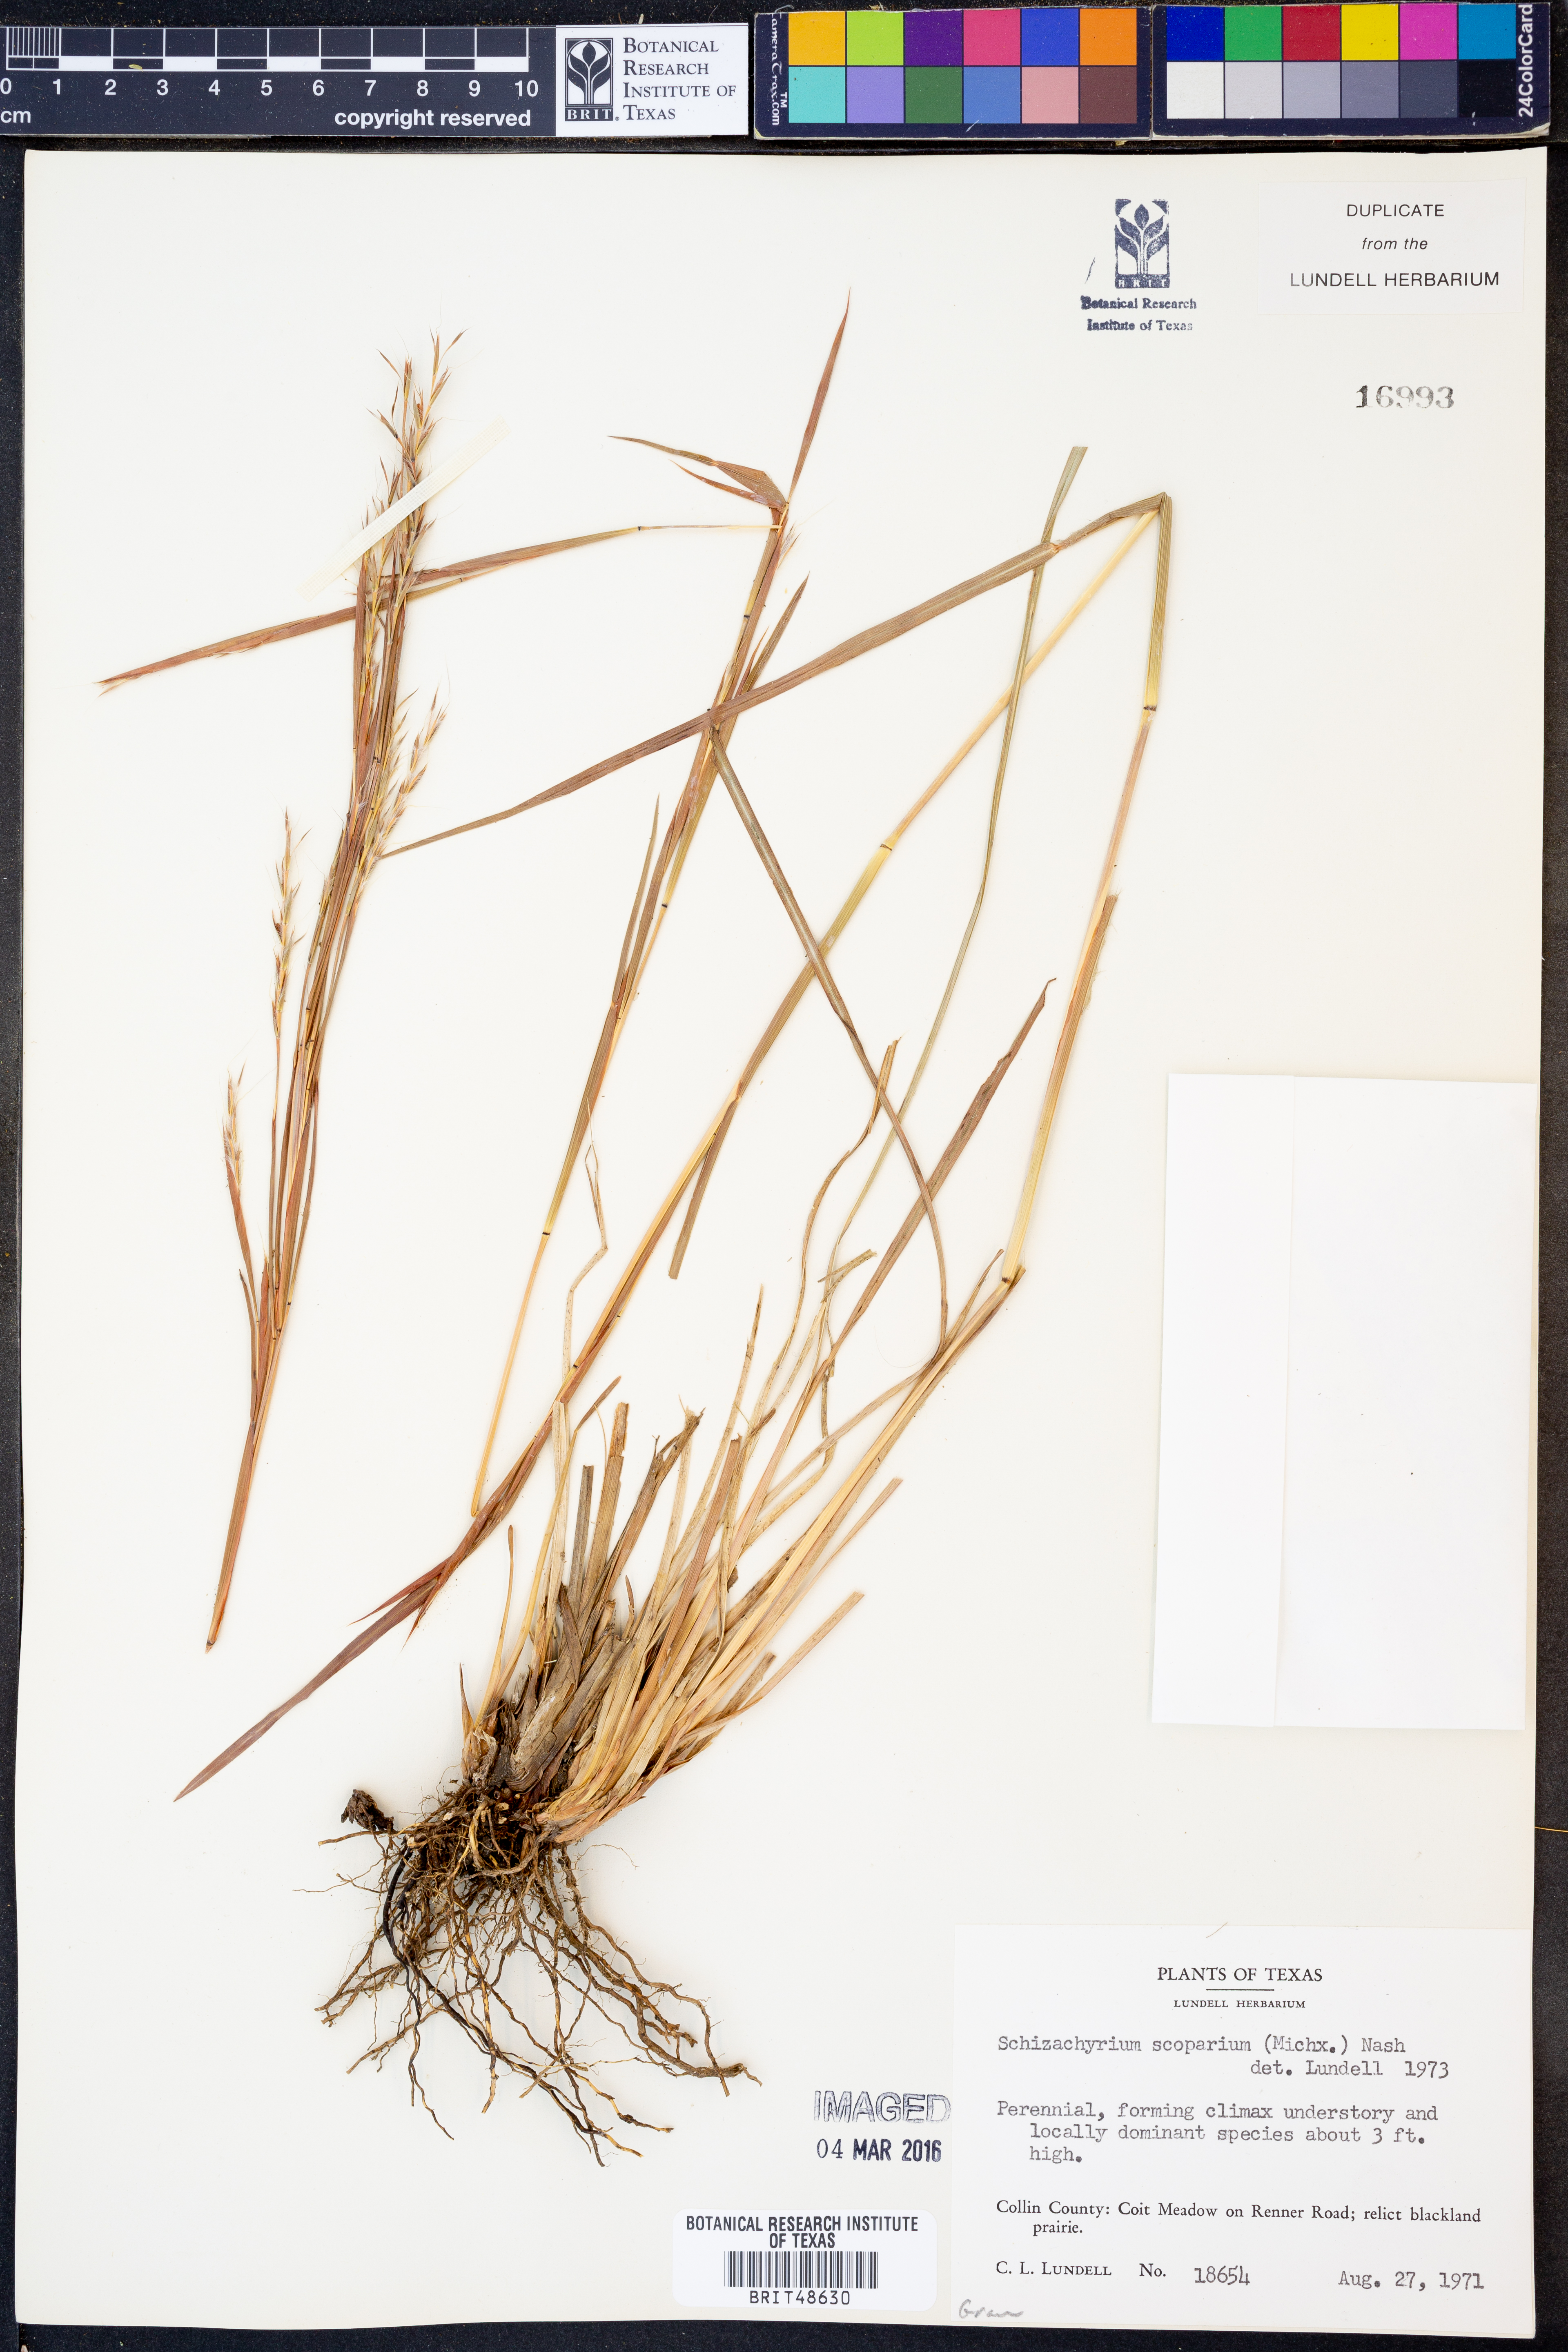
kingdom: Plantae
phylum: Tracheophyta
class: Liliopsida
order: Poales
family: Poaceae
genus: Schizachyrium
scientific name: Schizachyrium scoparium
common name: Little bluestem
